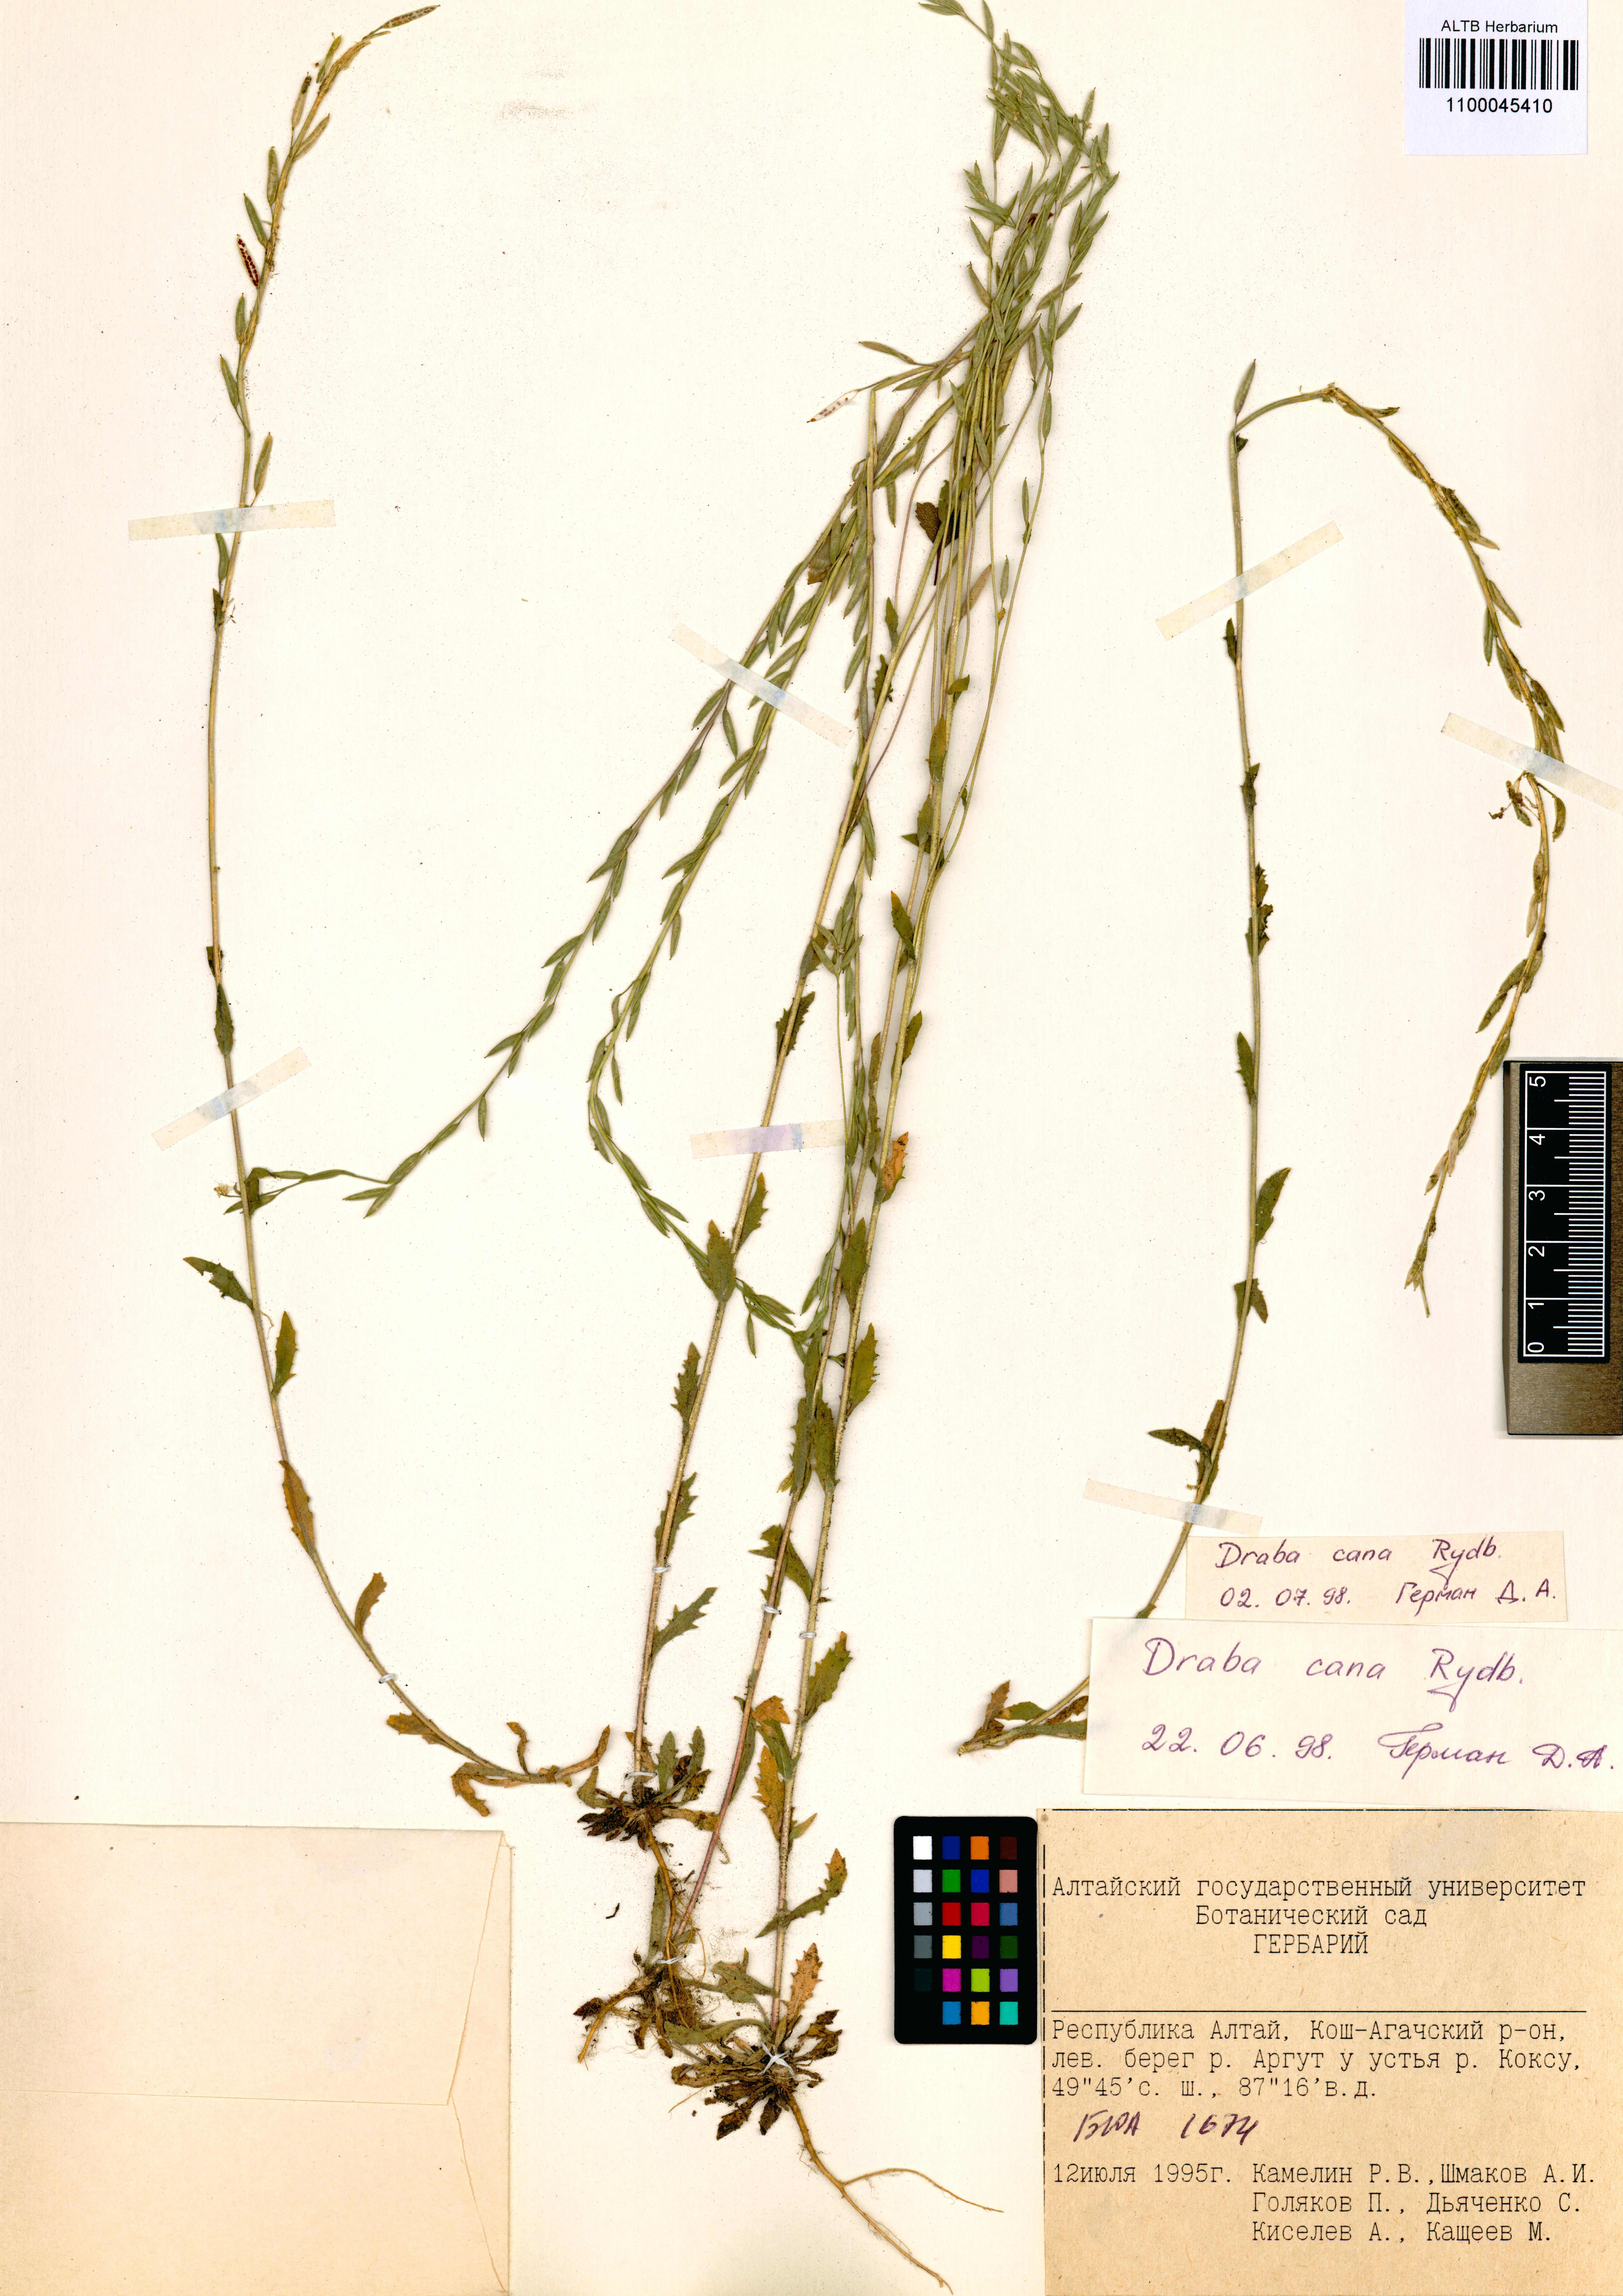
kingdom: Plantae
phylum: Tracheophyta
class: Magnoliopsida
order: Brassicales
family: Brassicaceae
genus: Draba
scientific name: Draba cana
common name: Hoary draba
